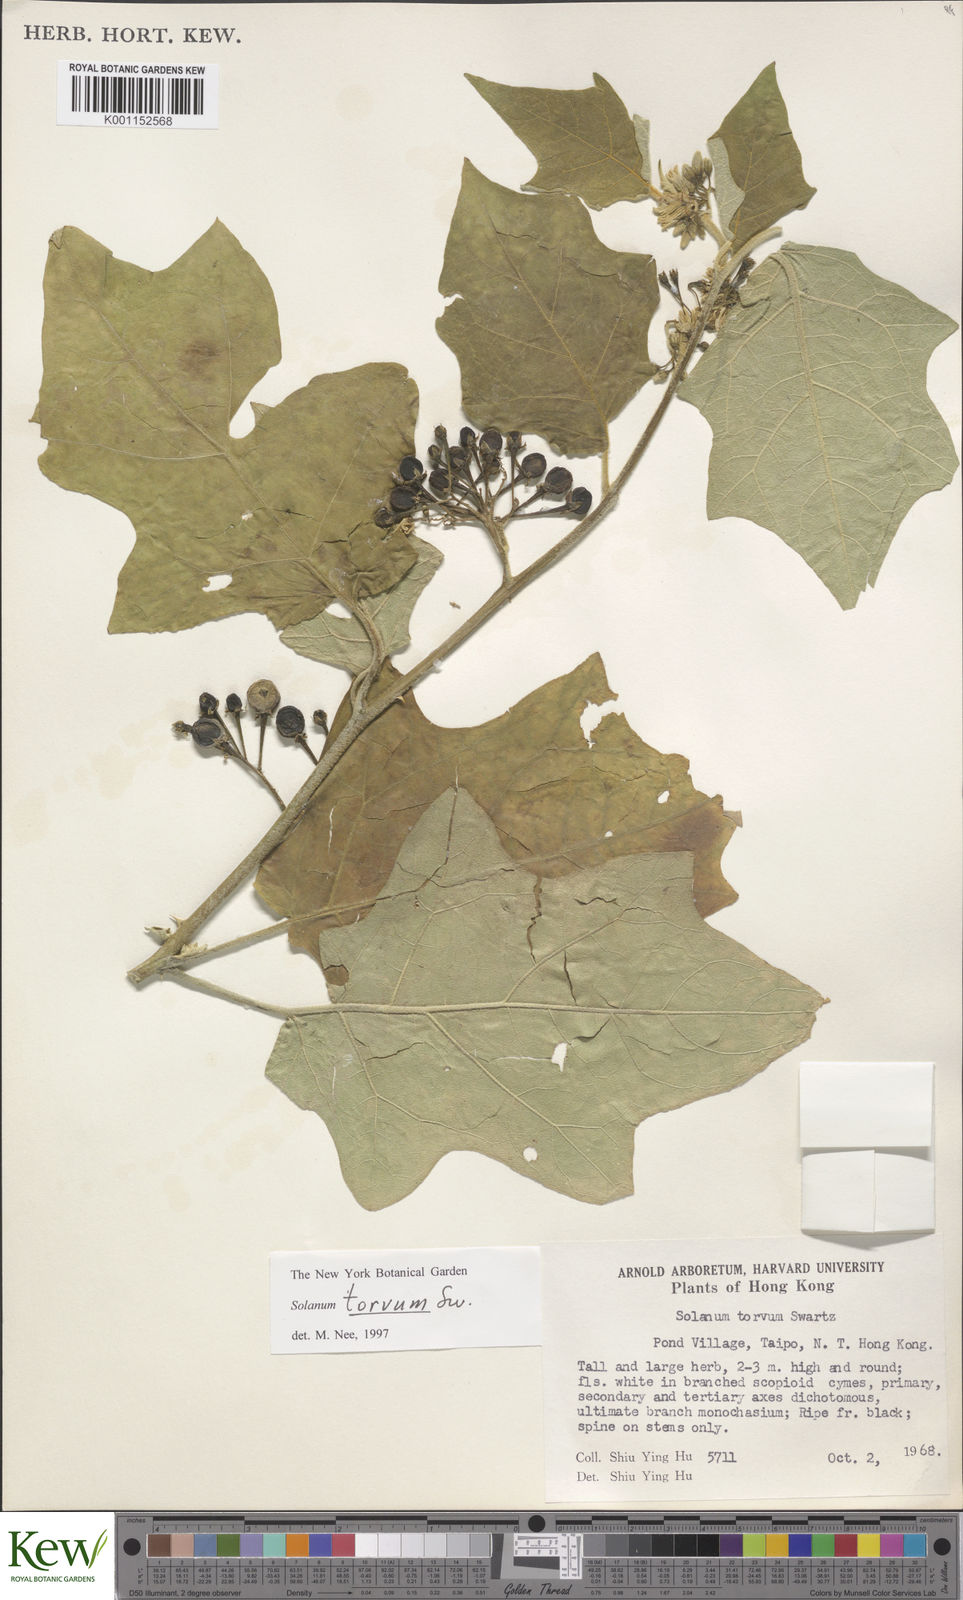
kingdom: Plantae
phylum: Tracheophyta
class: Magnoliopsida
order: Solanales
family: Solanaceae
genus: Solanum
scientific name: Solanum torvum
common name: Turkey berry
